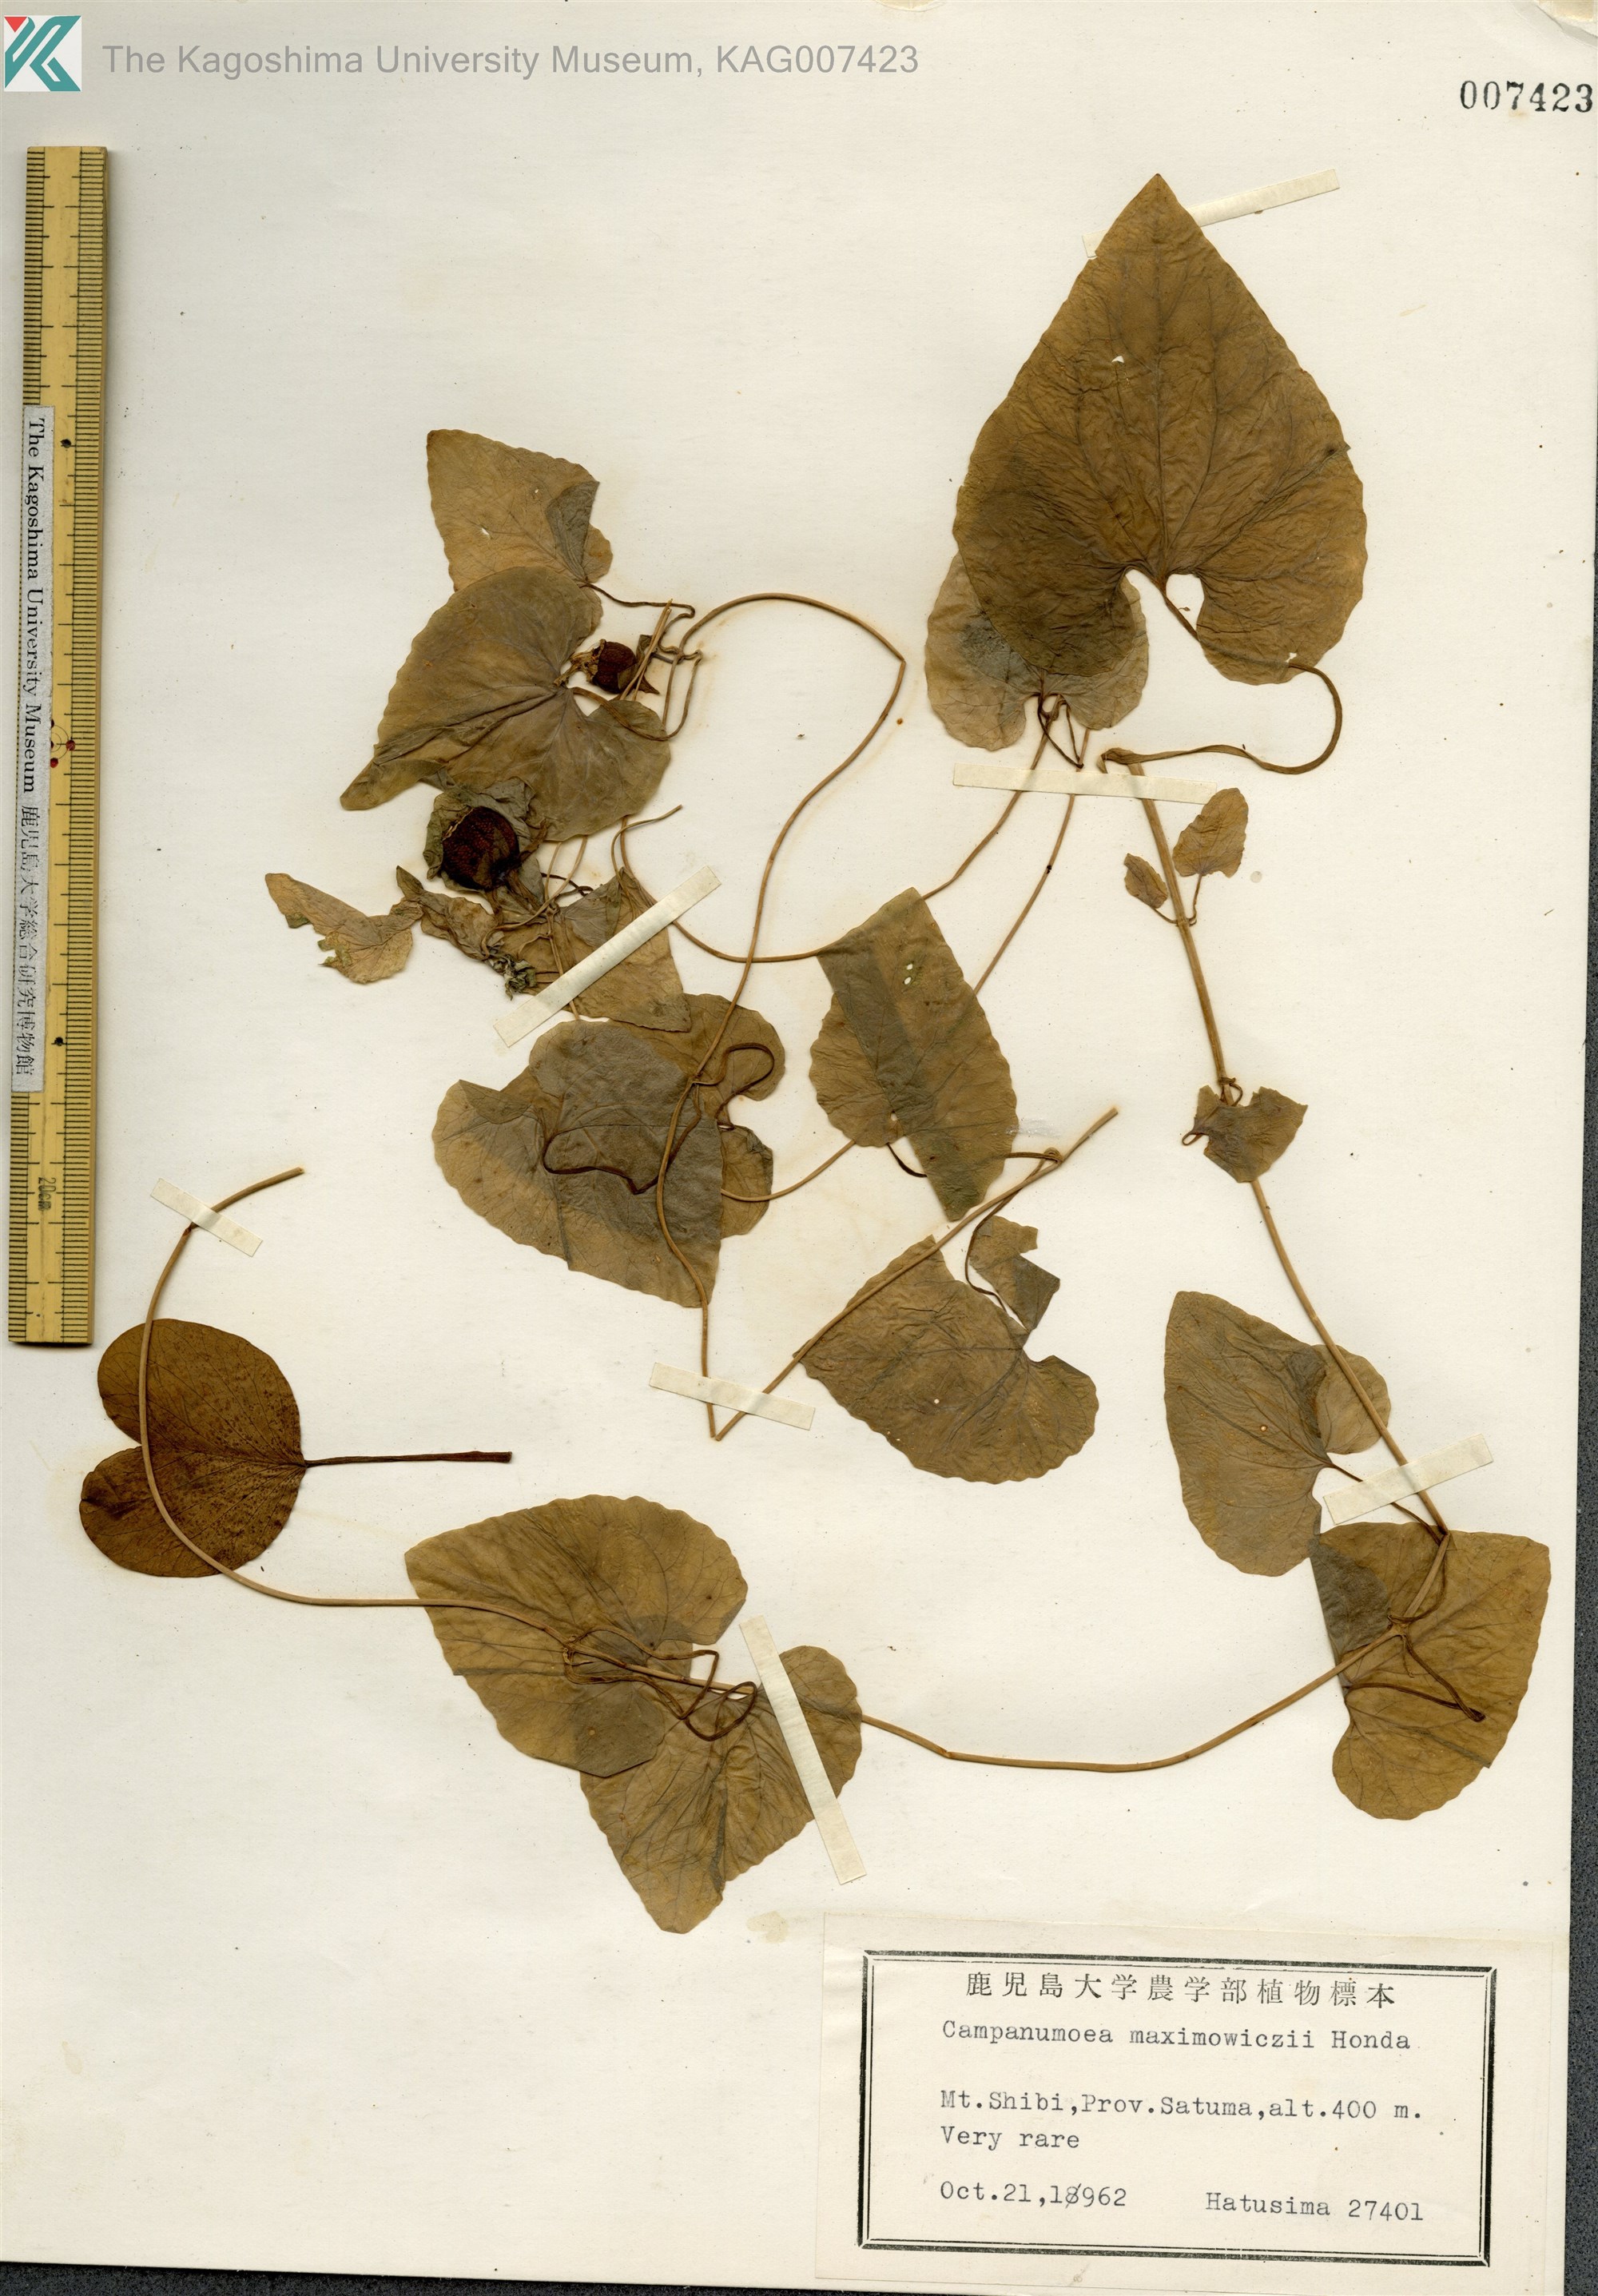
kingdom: Plantae
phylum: Tracheophyta
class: Magnoliopsida
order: Asterales
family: Campanulaceae
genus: Codonopsis
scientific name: Codonopsis javanica
